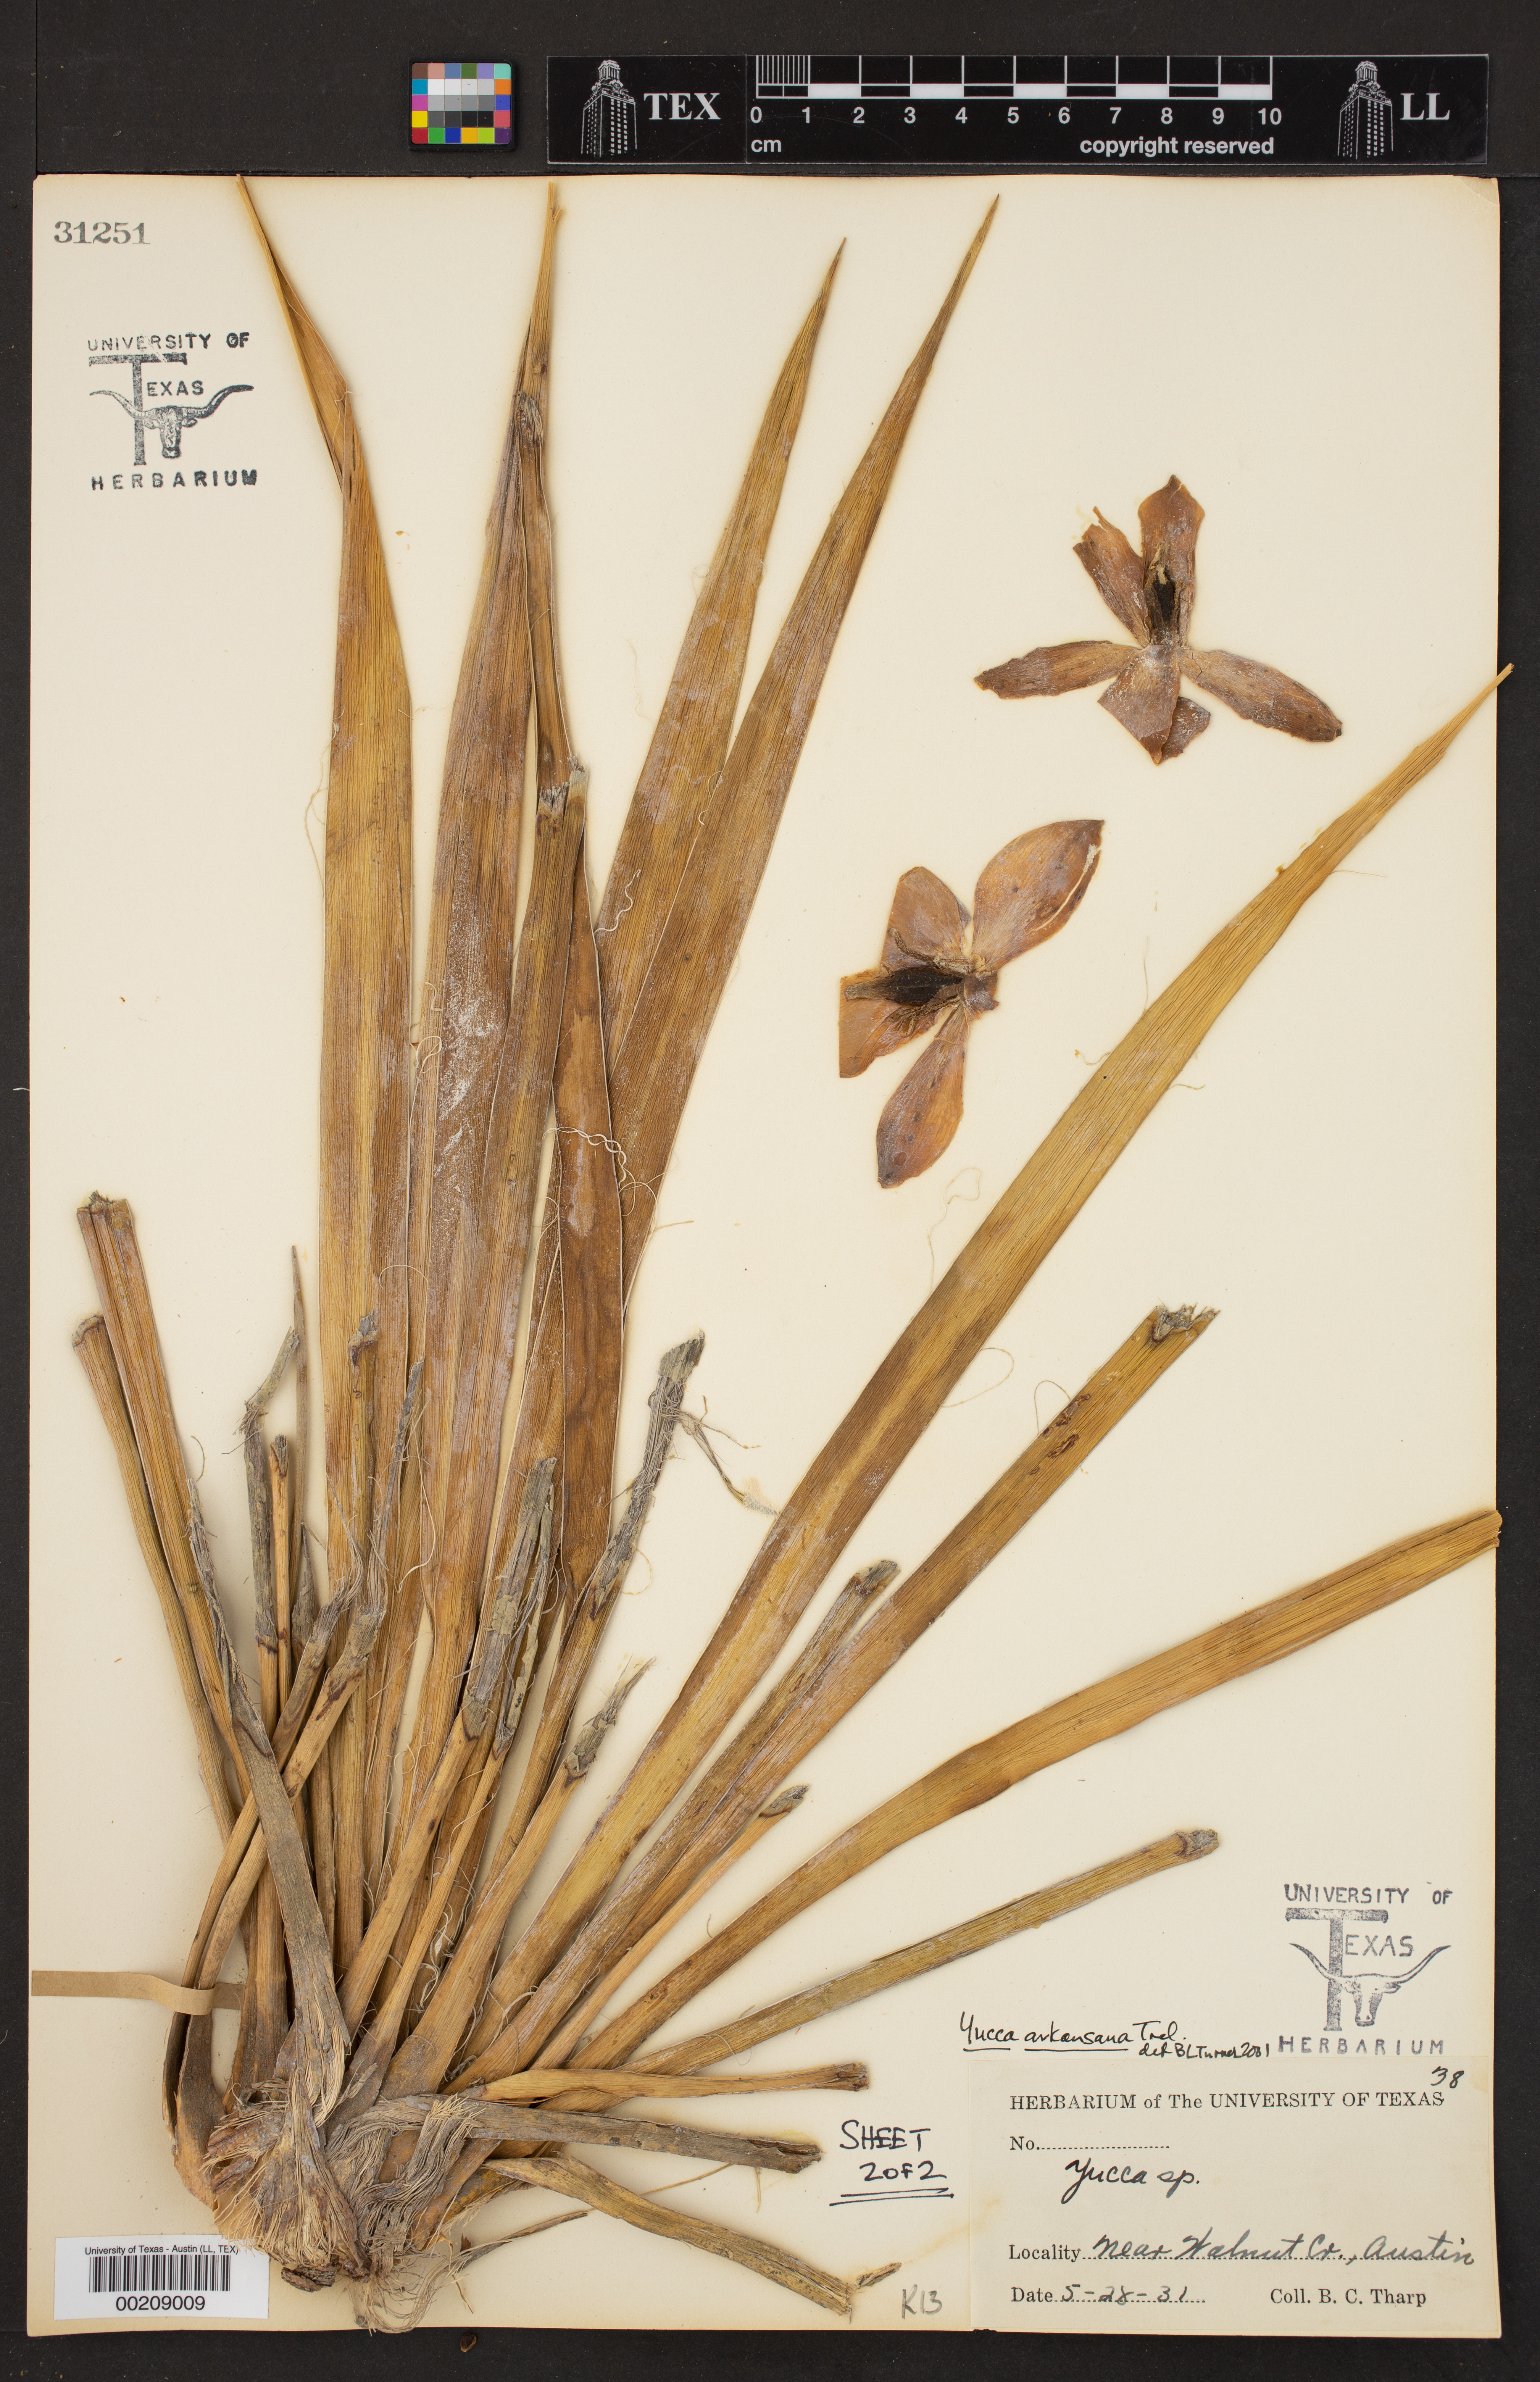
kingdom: Plantae
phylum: Tracheophyta
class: Liliopsida
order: Asparagales
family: Asparagaceae
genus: Yucca
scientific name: Yucca arkansana
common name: Arkansas yucca
